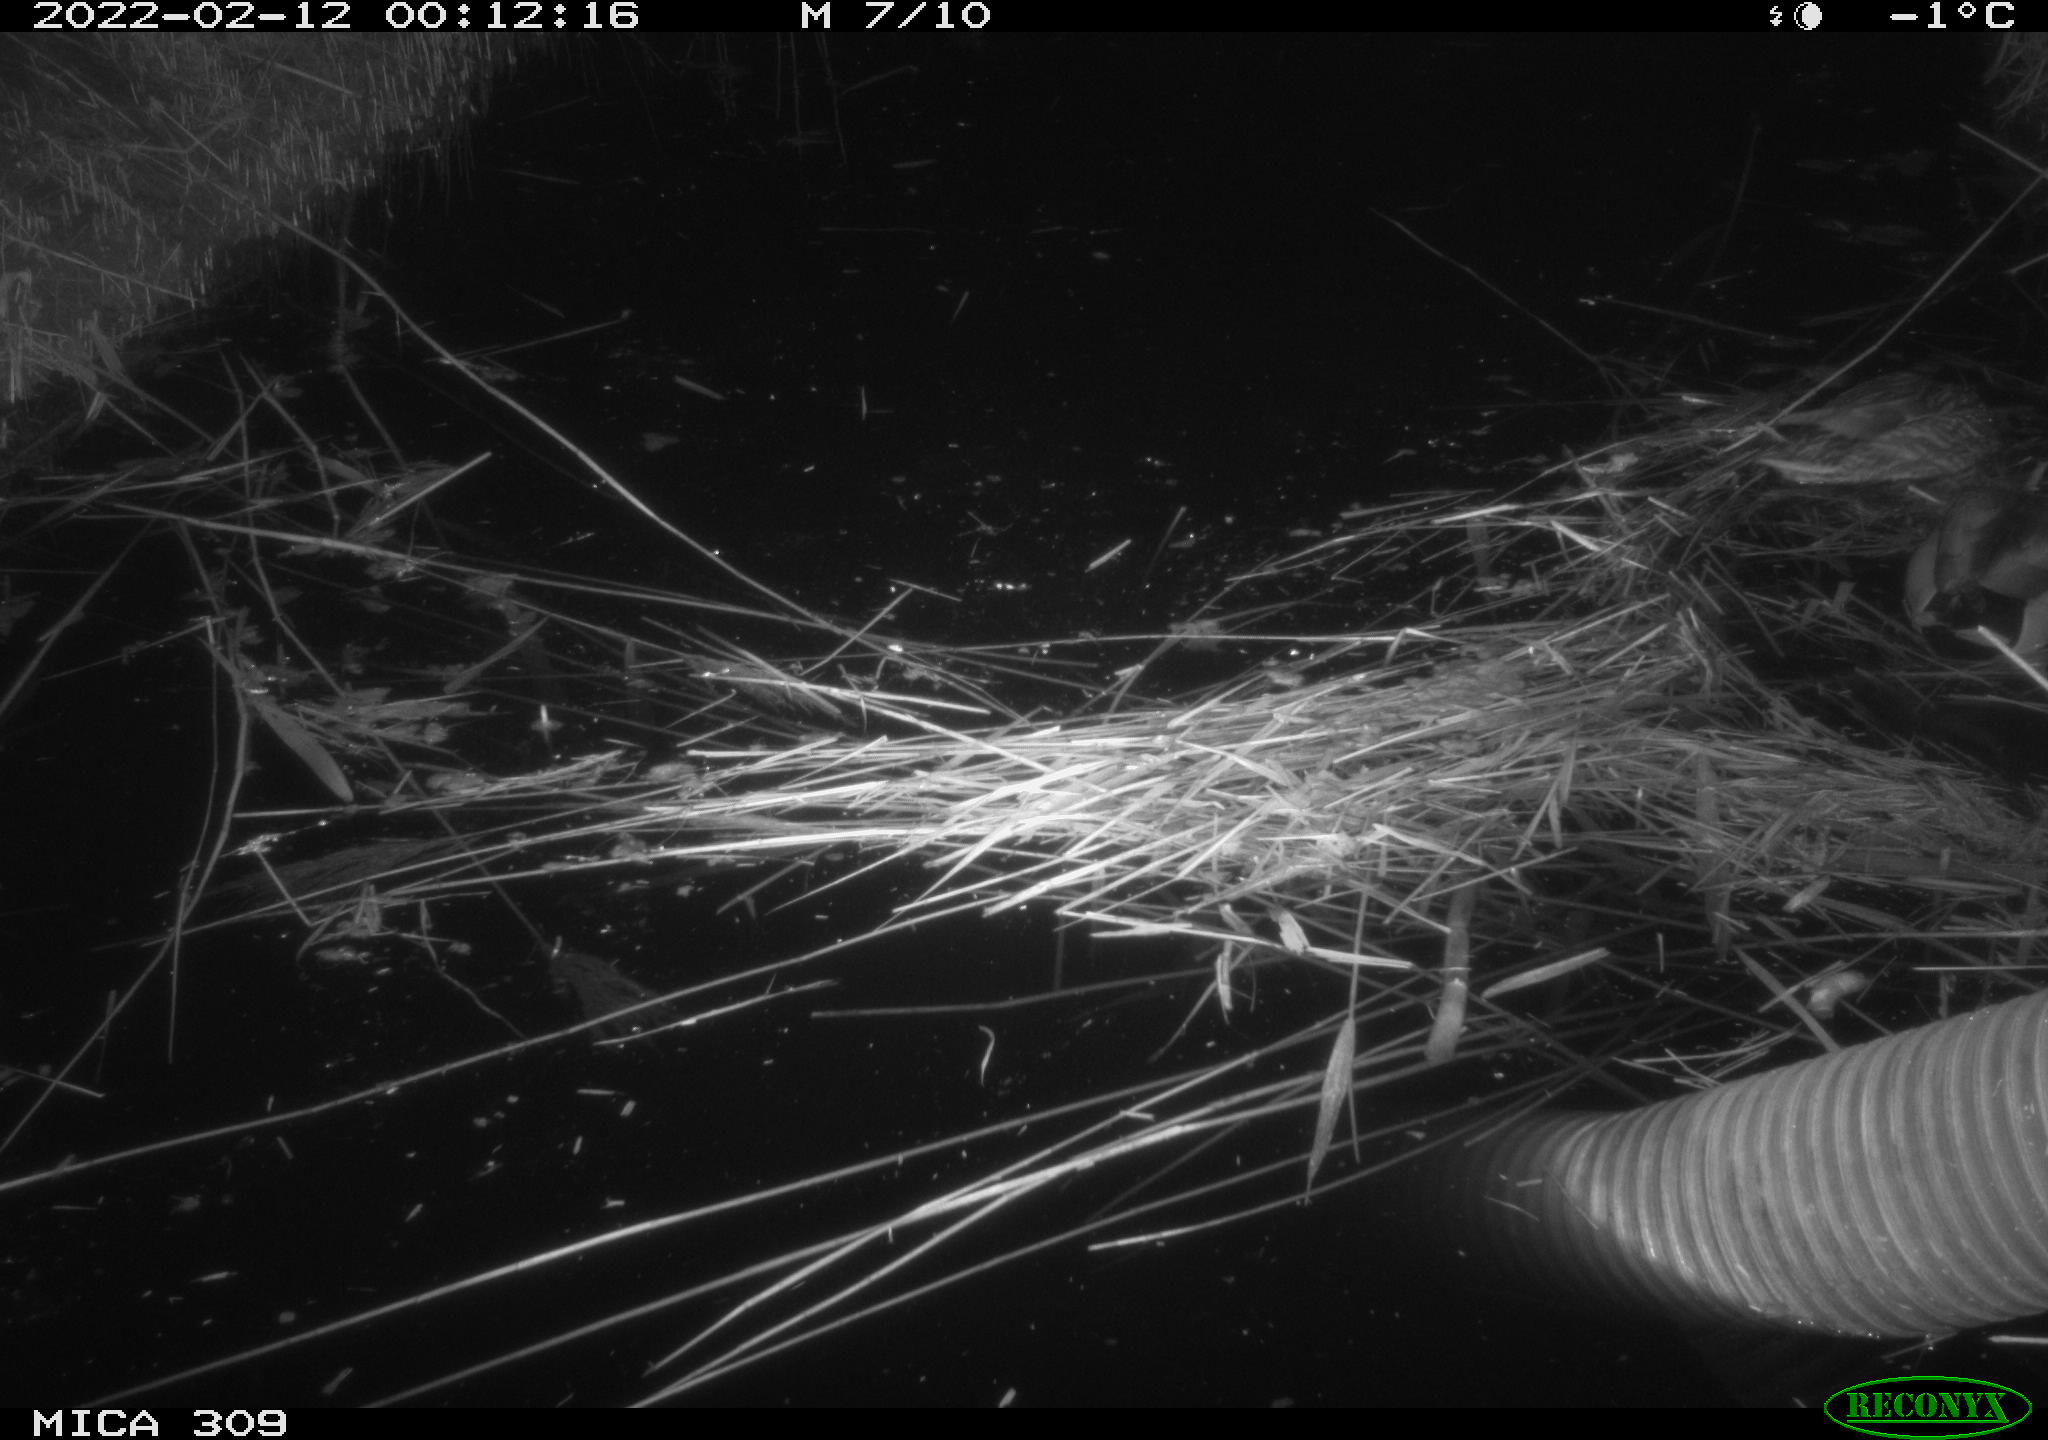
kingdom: Animalia
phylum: Chordata
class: Aves
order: Anseriformes
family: Anatidae
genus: Anas
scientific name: Anas platyrhynchos
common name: Mallard
